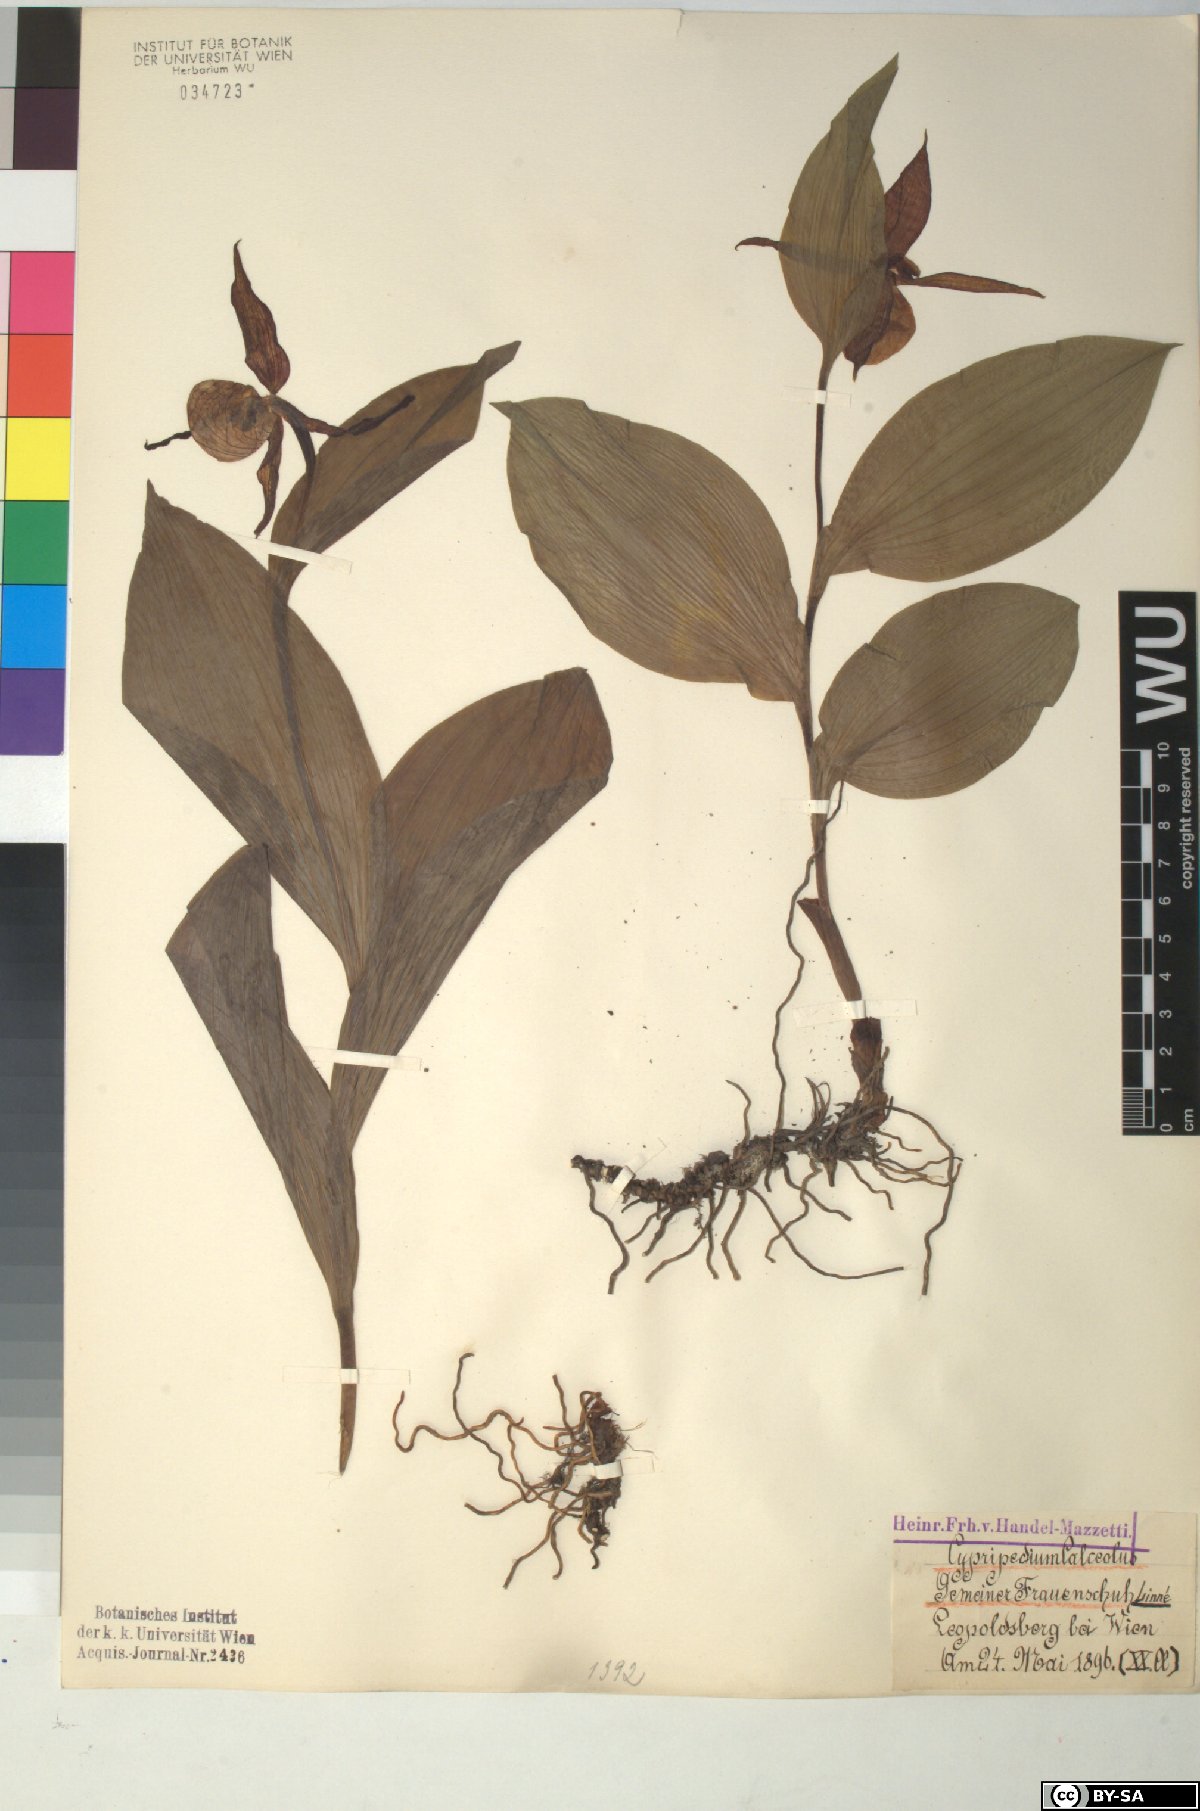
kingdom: Plantae
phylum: Tracheophyta
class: Liliopsida
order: Asparagales
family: Orchidaceae
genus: Cypripedium
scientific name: Cypripedium calceolus
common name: Lady's-slipper
